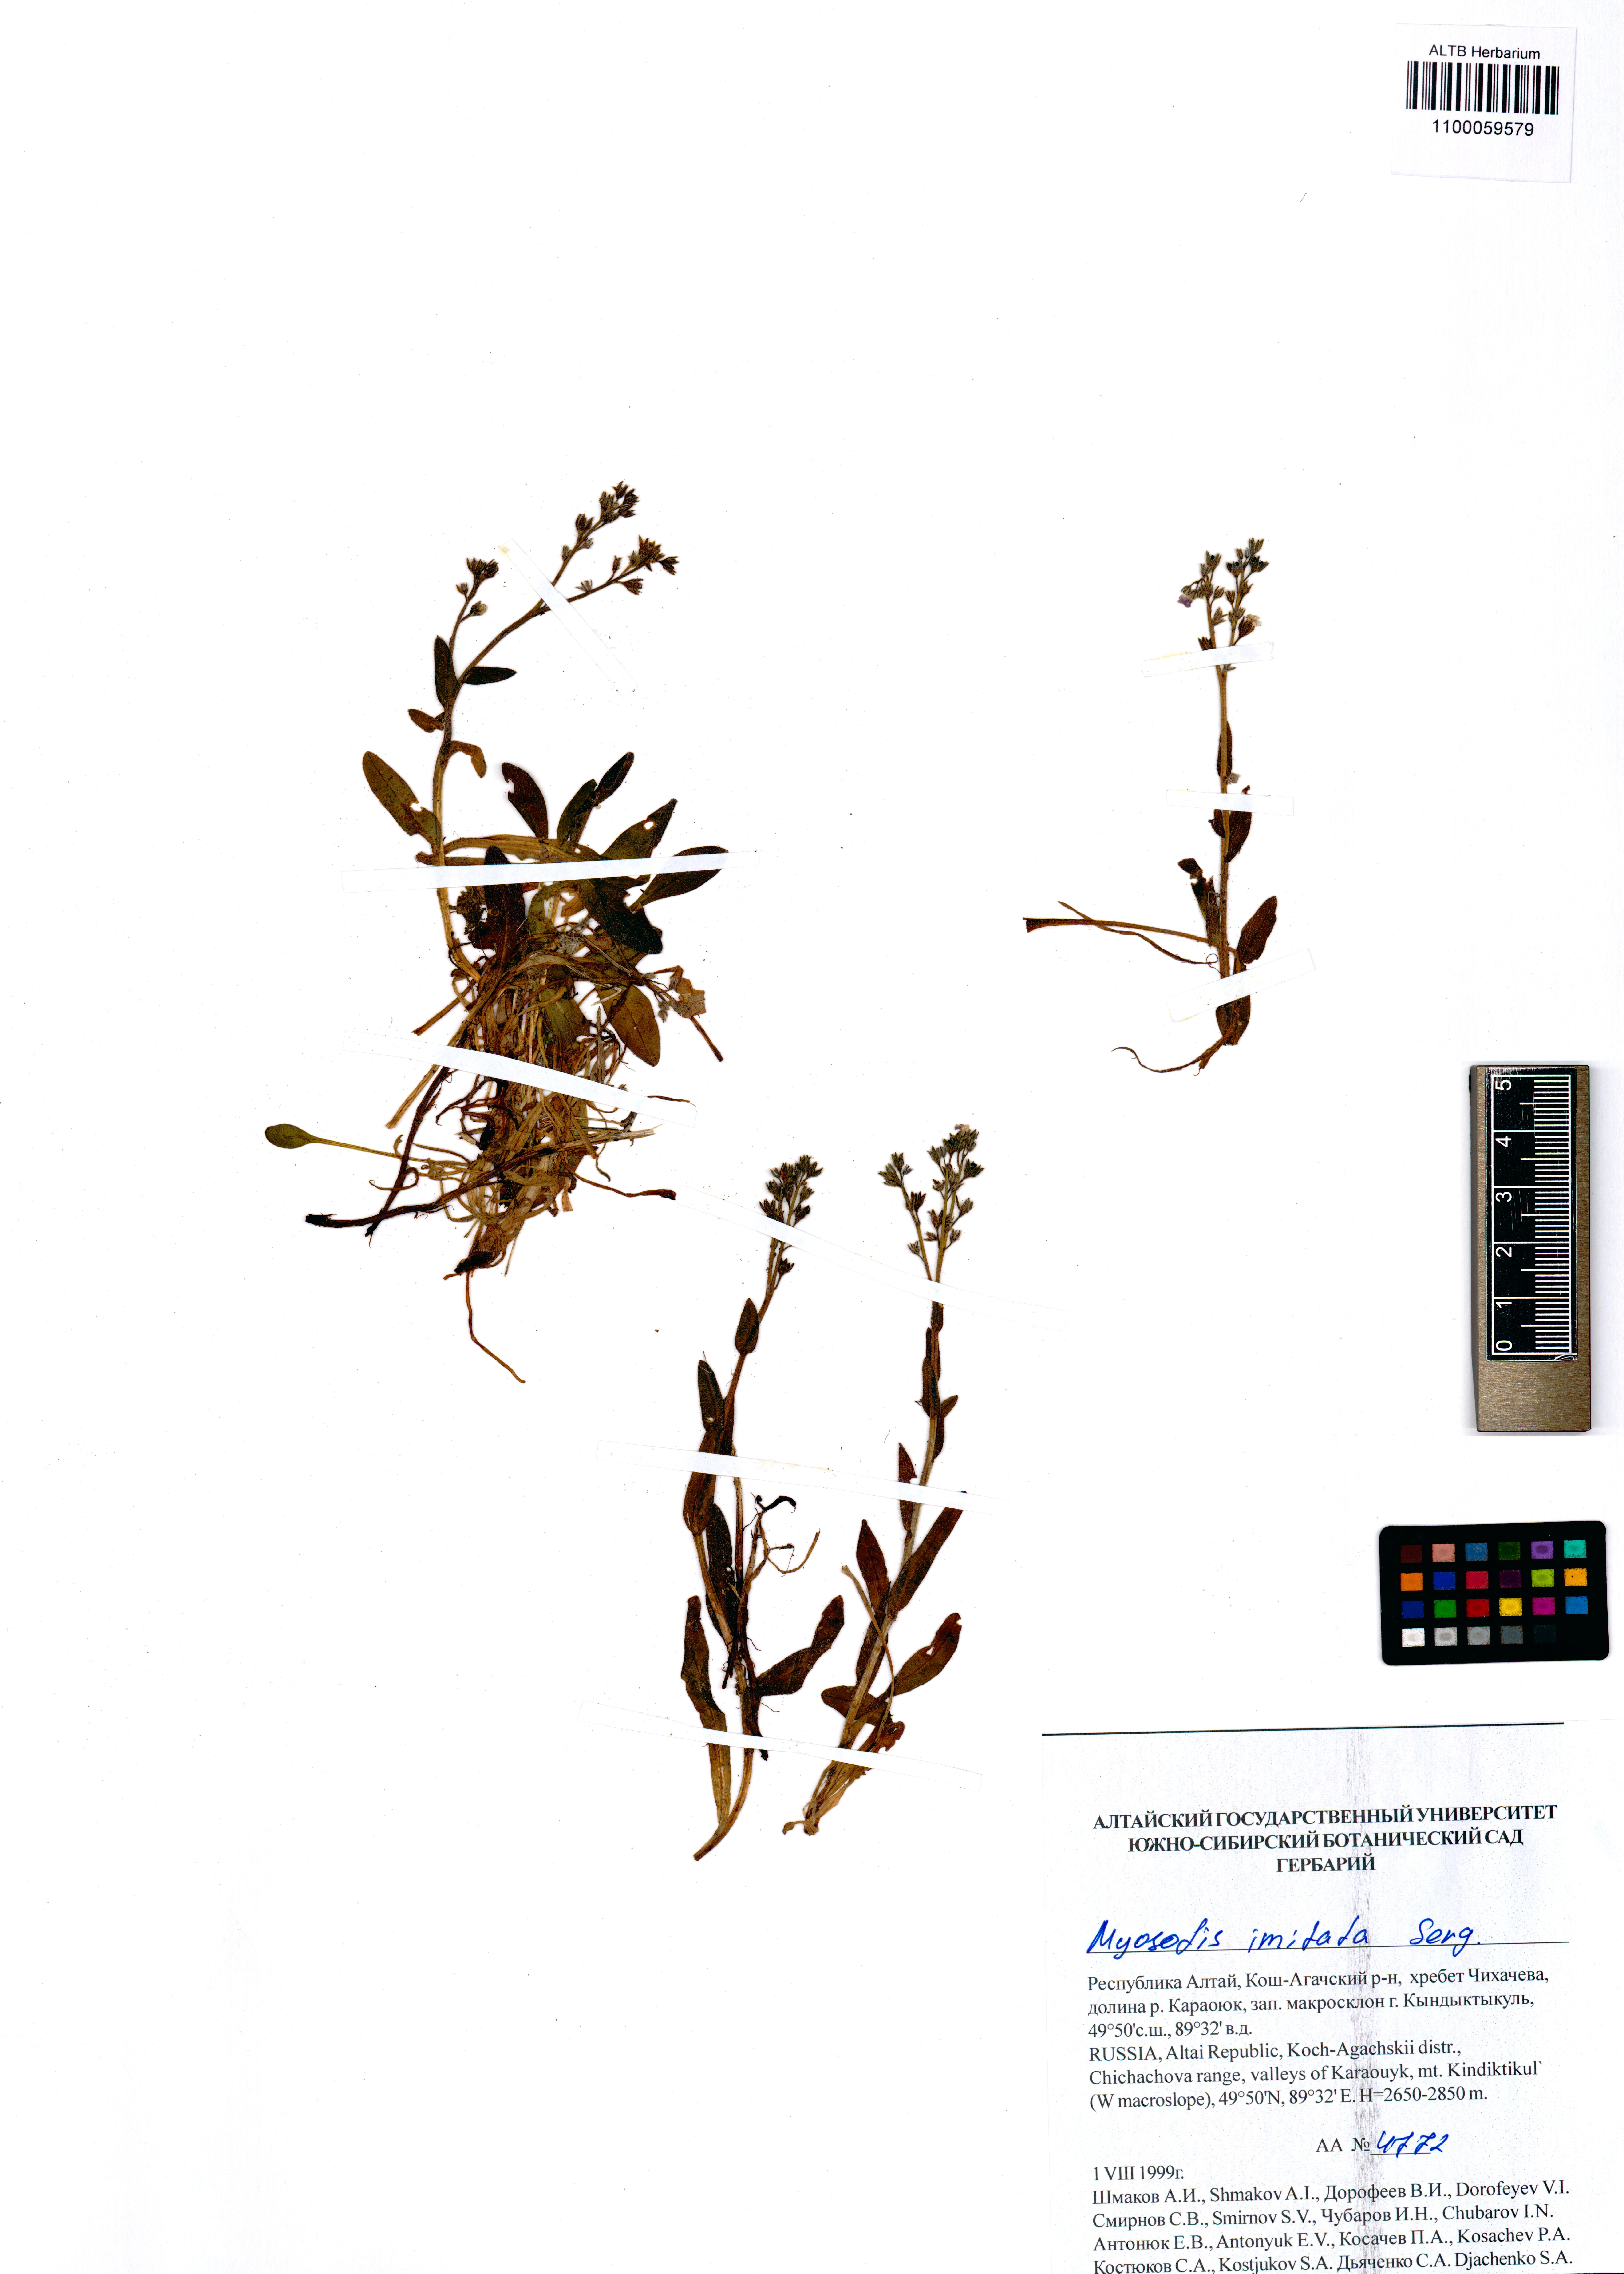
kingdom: Plantae
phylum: Tracheophyta
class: Magnoliopsida
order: Boraginales
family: Boraginaceae
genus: Myosotis
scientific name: Myosotis imitata
